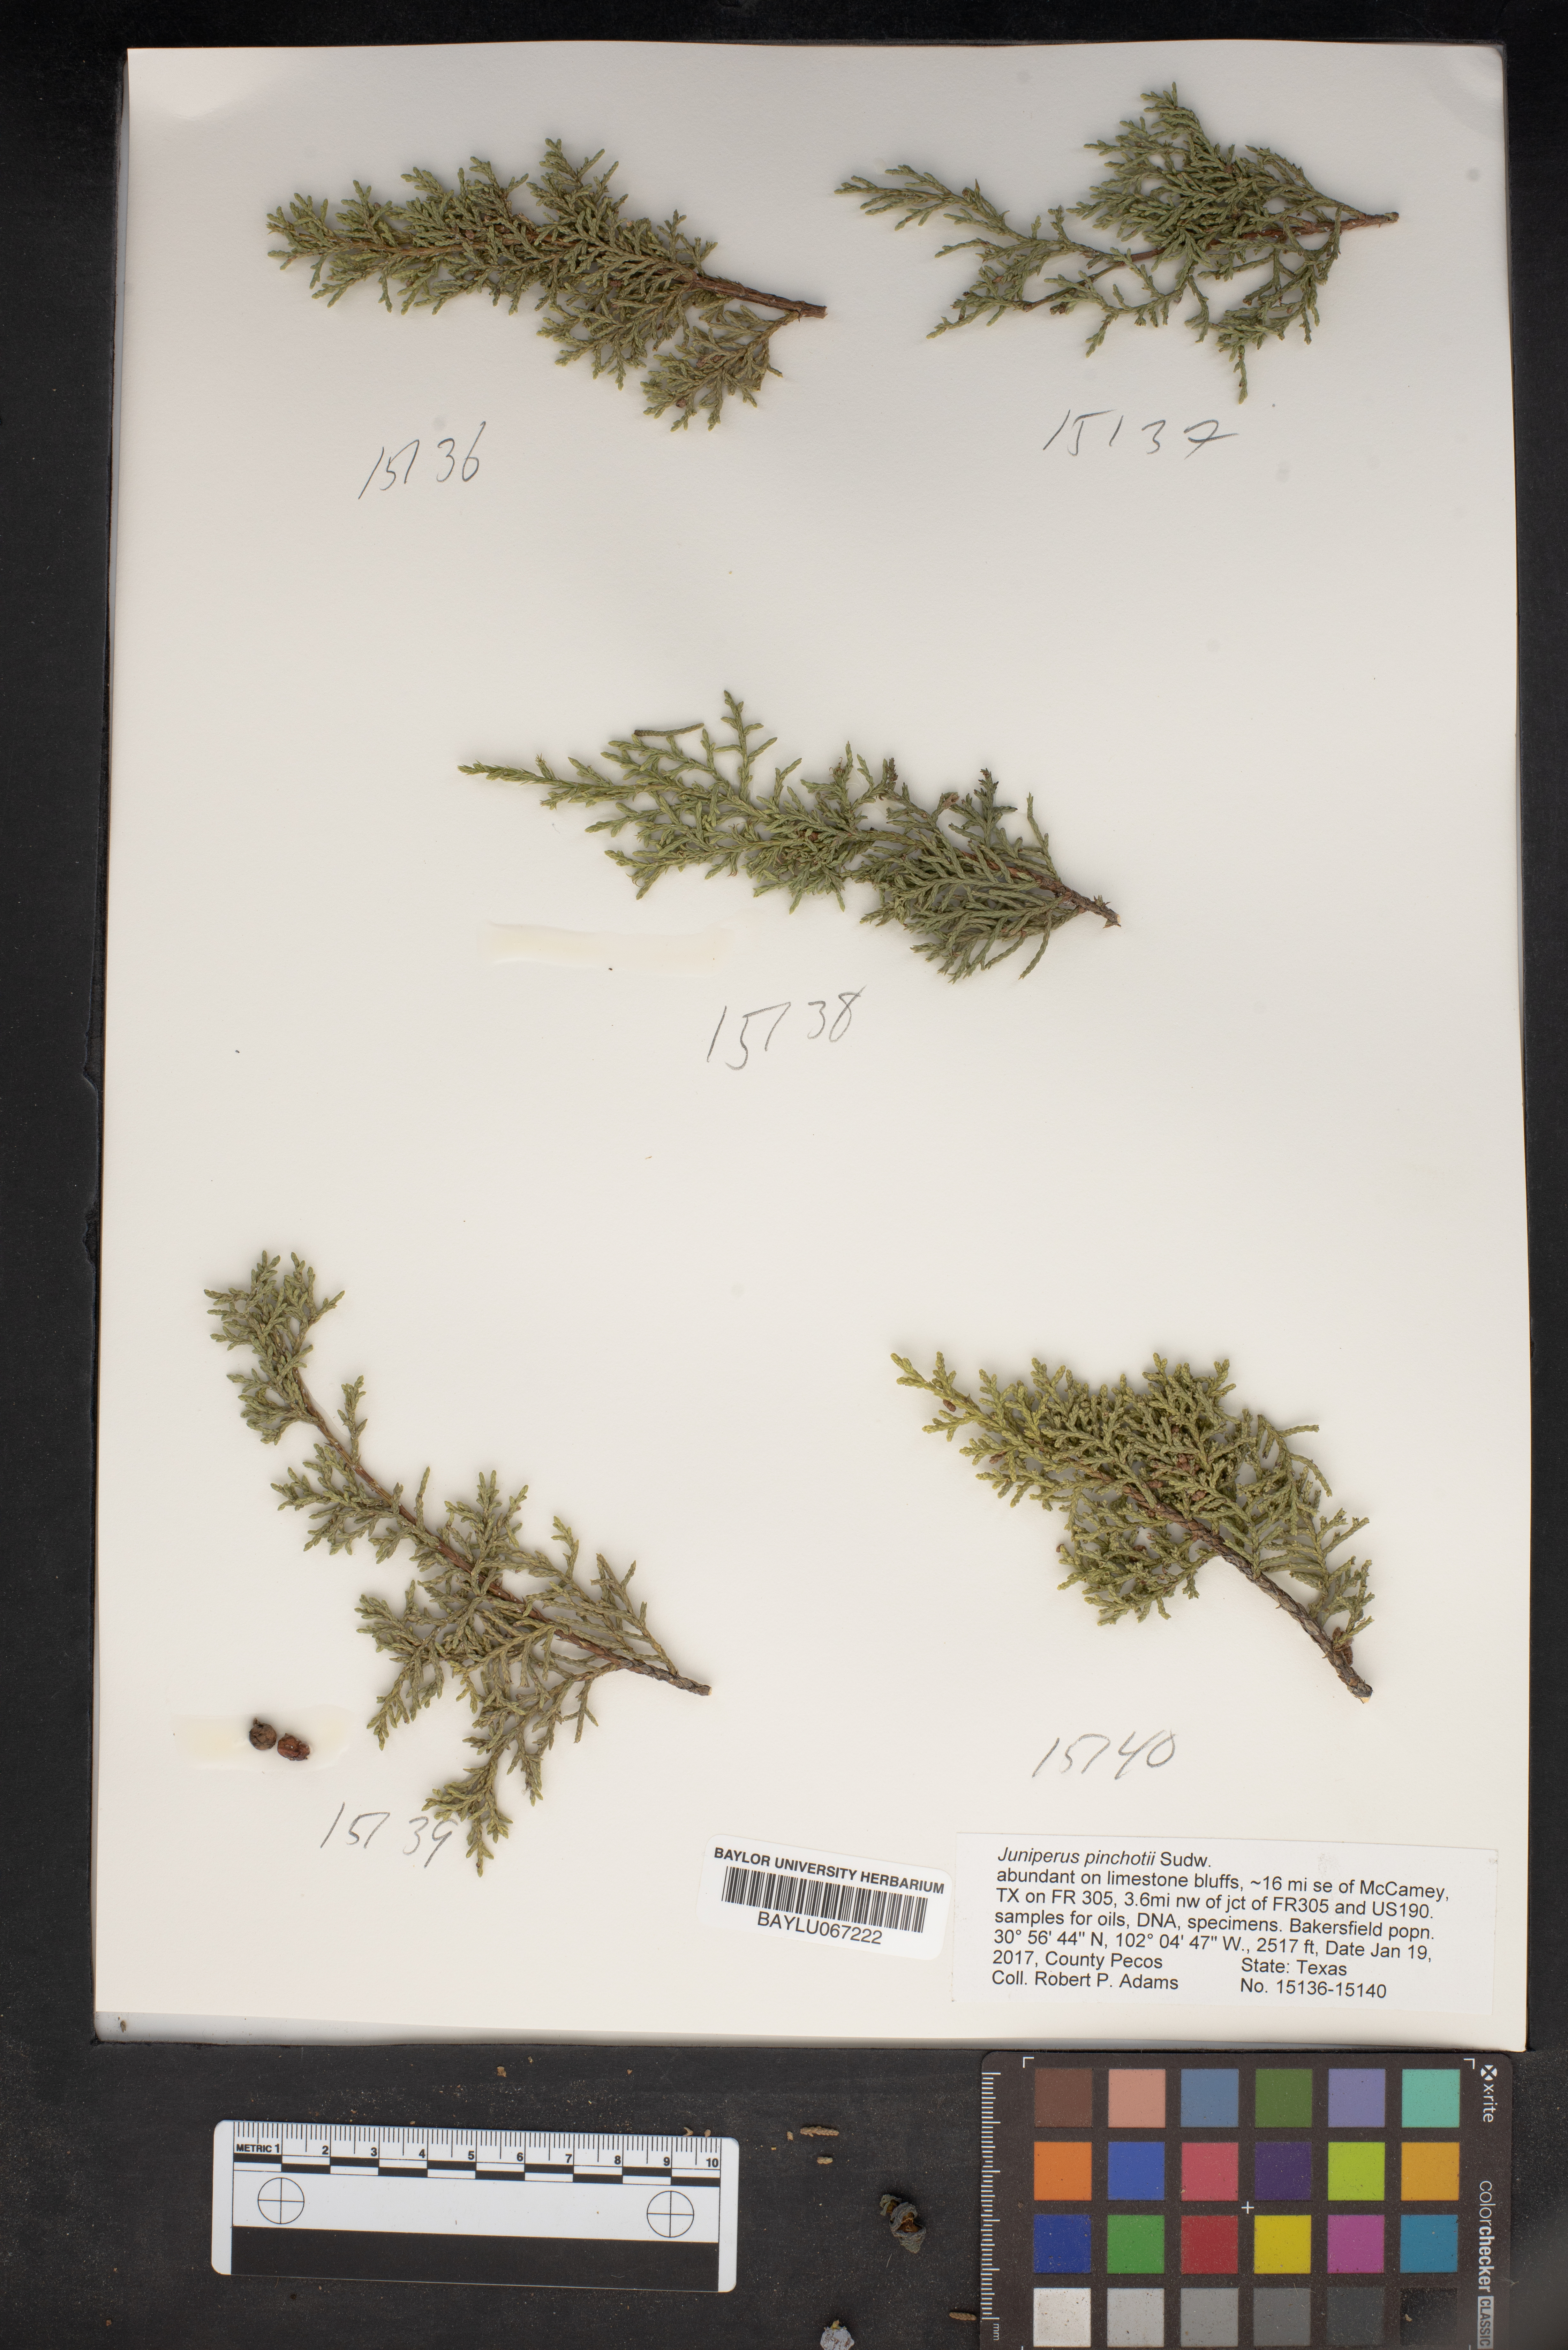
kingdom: Plantae
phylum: Tracheophyta
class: Pinopsida
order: Pinales
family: Cupressaceae
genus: Juniperus
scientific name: Juniperus pinchotii
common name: Pinchot juniper
